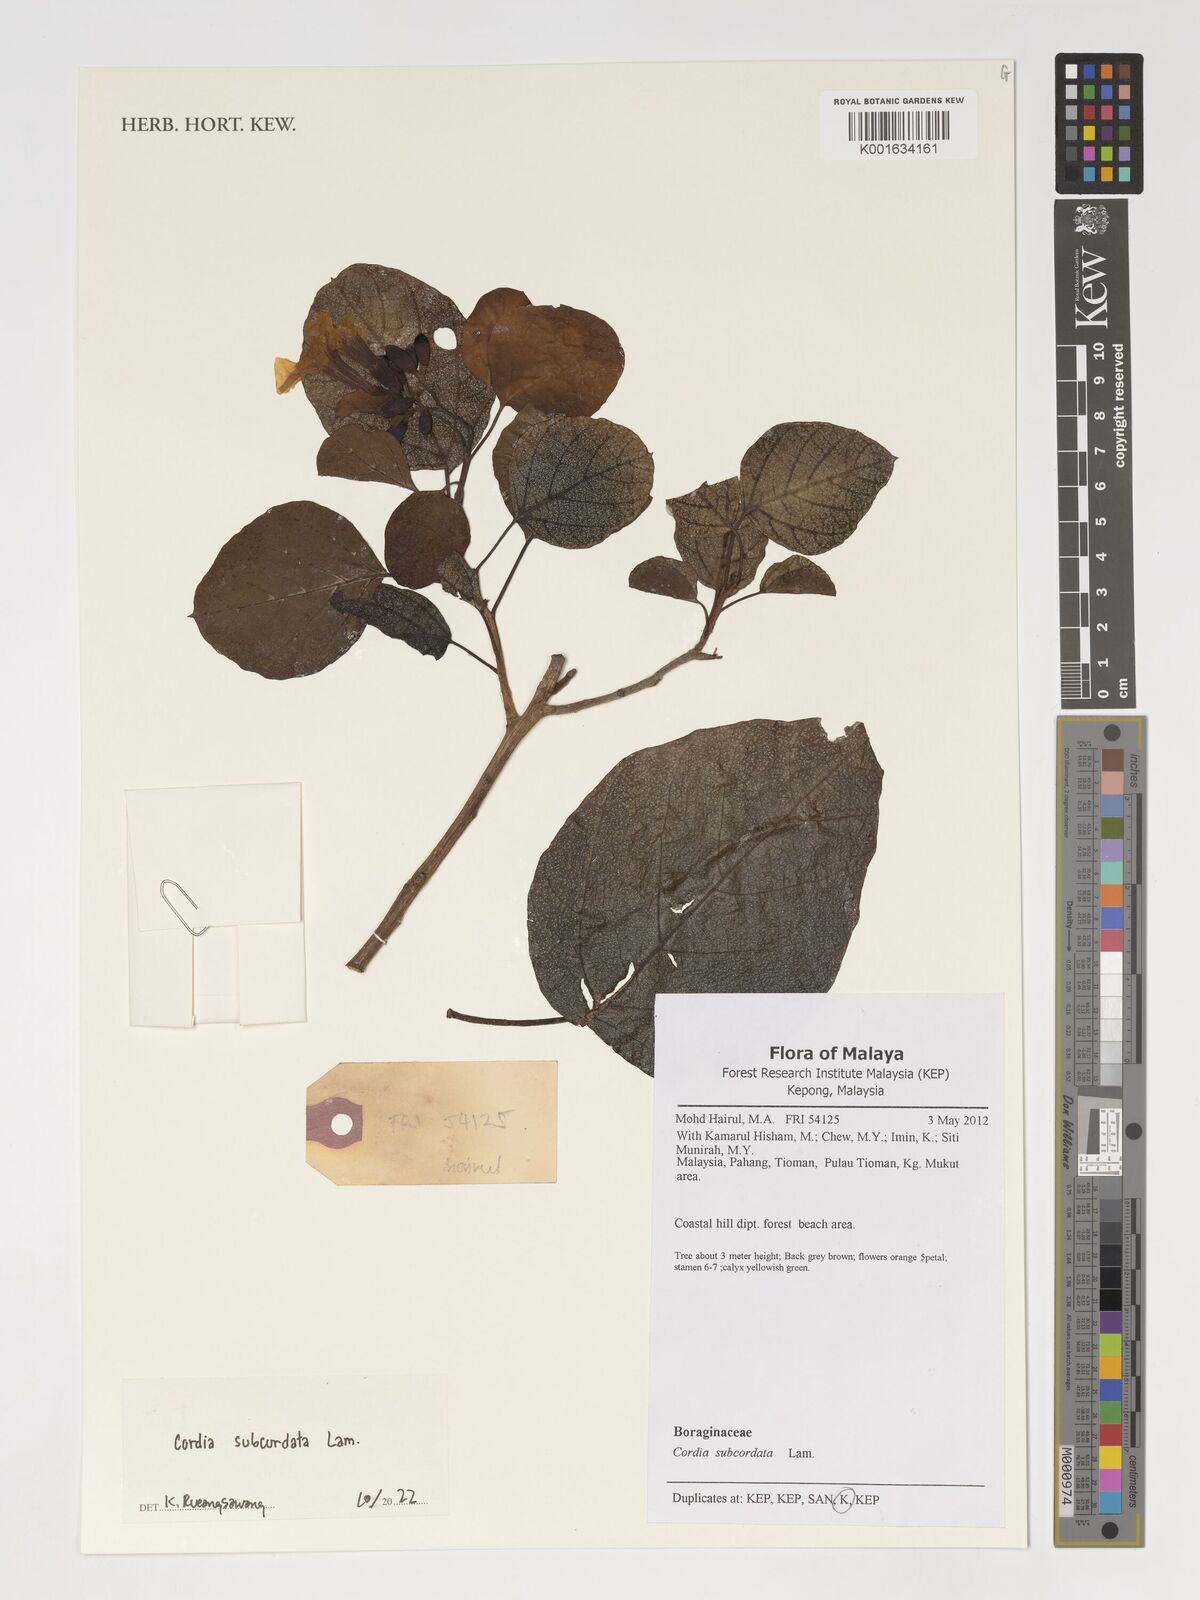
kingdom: Plantae
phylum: Tracheophyta
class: Magnoliopsida
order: Boraginales
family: Cordiaceae
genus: Cordia
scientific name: Cordia subcordata
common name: Mareer
